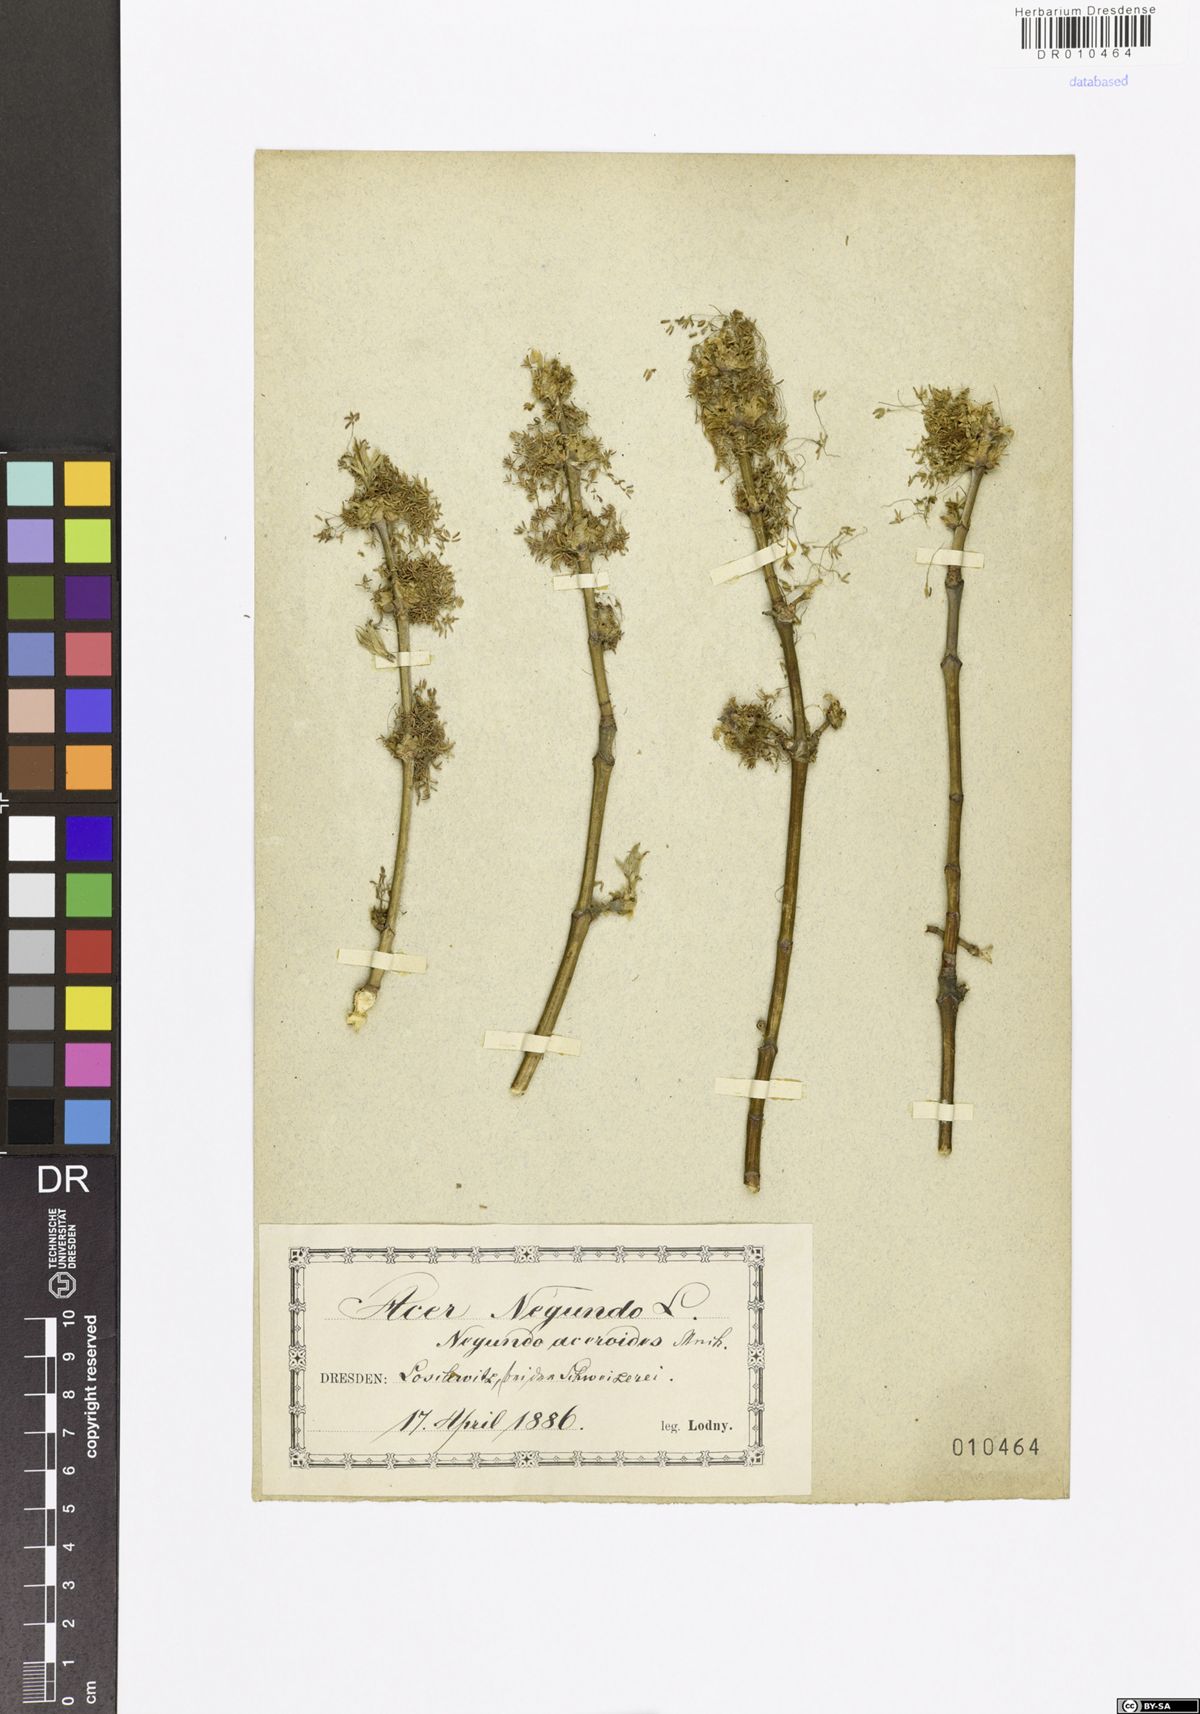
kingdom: Plantae
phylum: Tracheophyta
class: Magnoliopsida
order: Sapindales
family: Sapindaceae
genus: Acer
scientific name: Acer negundo
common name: Ashleaf maple
